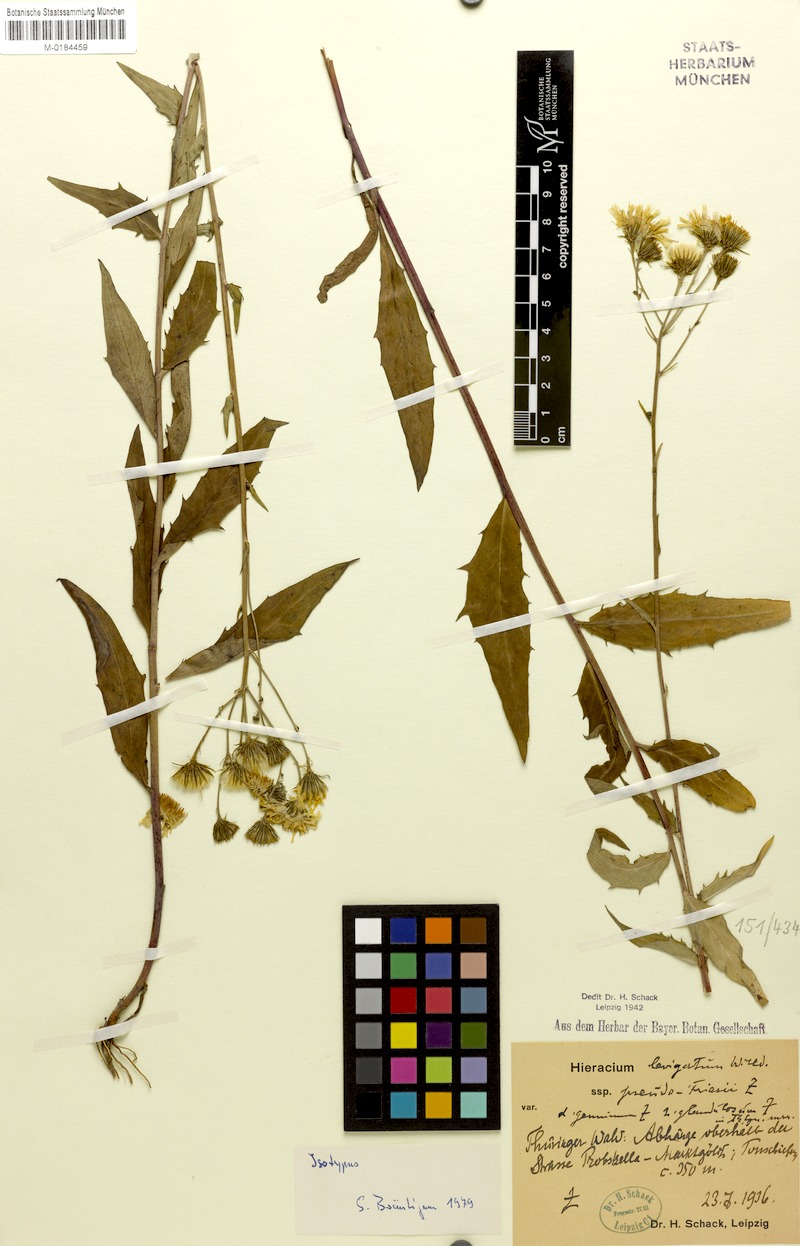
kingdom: Plantae
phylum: Tracheophyta
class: Magnoliopsida
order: Asterales
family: Asteraceae
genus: Hieracium
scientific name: Hieracium laevigatum
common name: Smooth hawkweed
